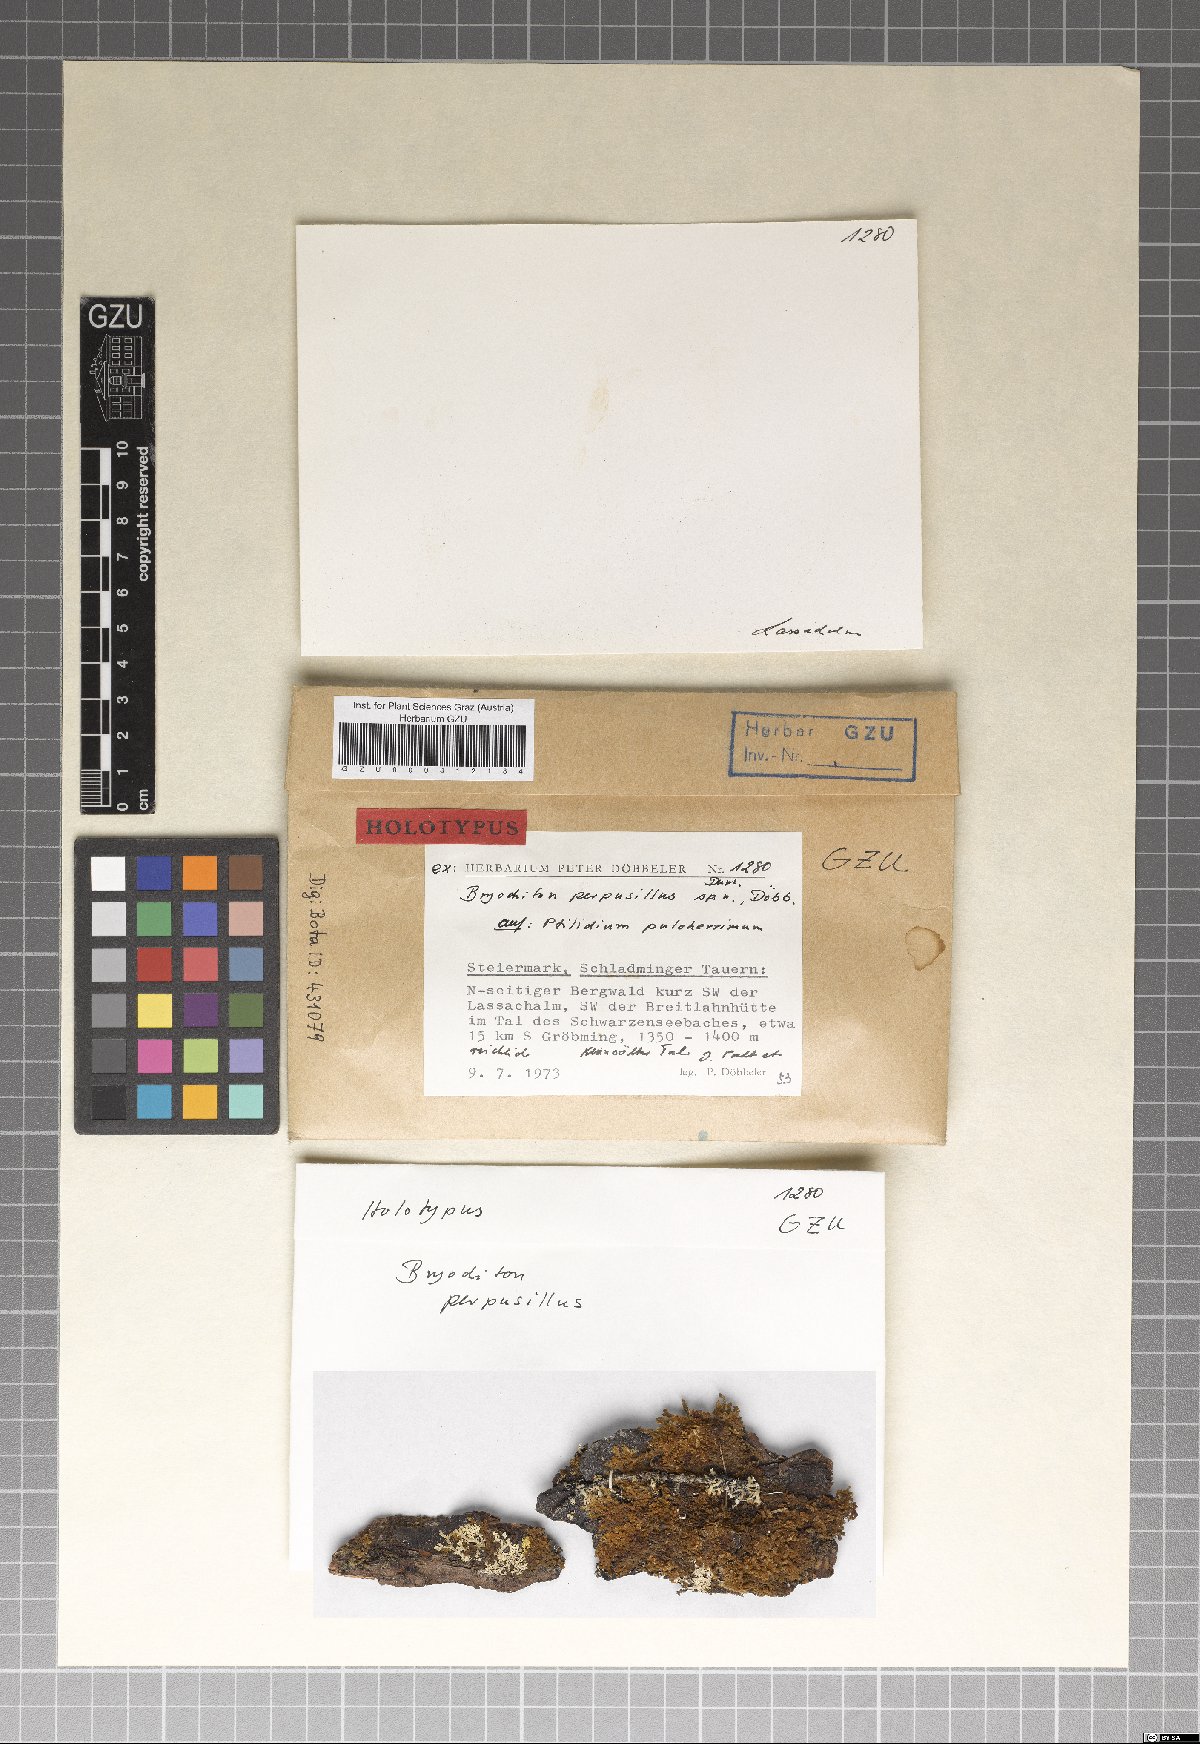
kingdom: Fungi
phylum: Ascomycota
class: Dothideomycetes
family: Pseudoperisporiaceae
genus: Bryochiton
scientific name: Bryochiton perpusillus
